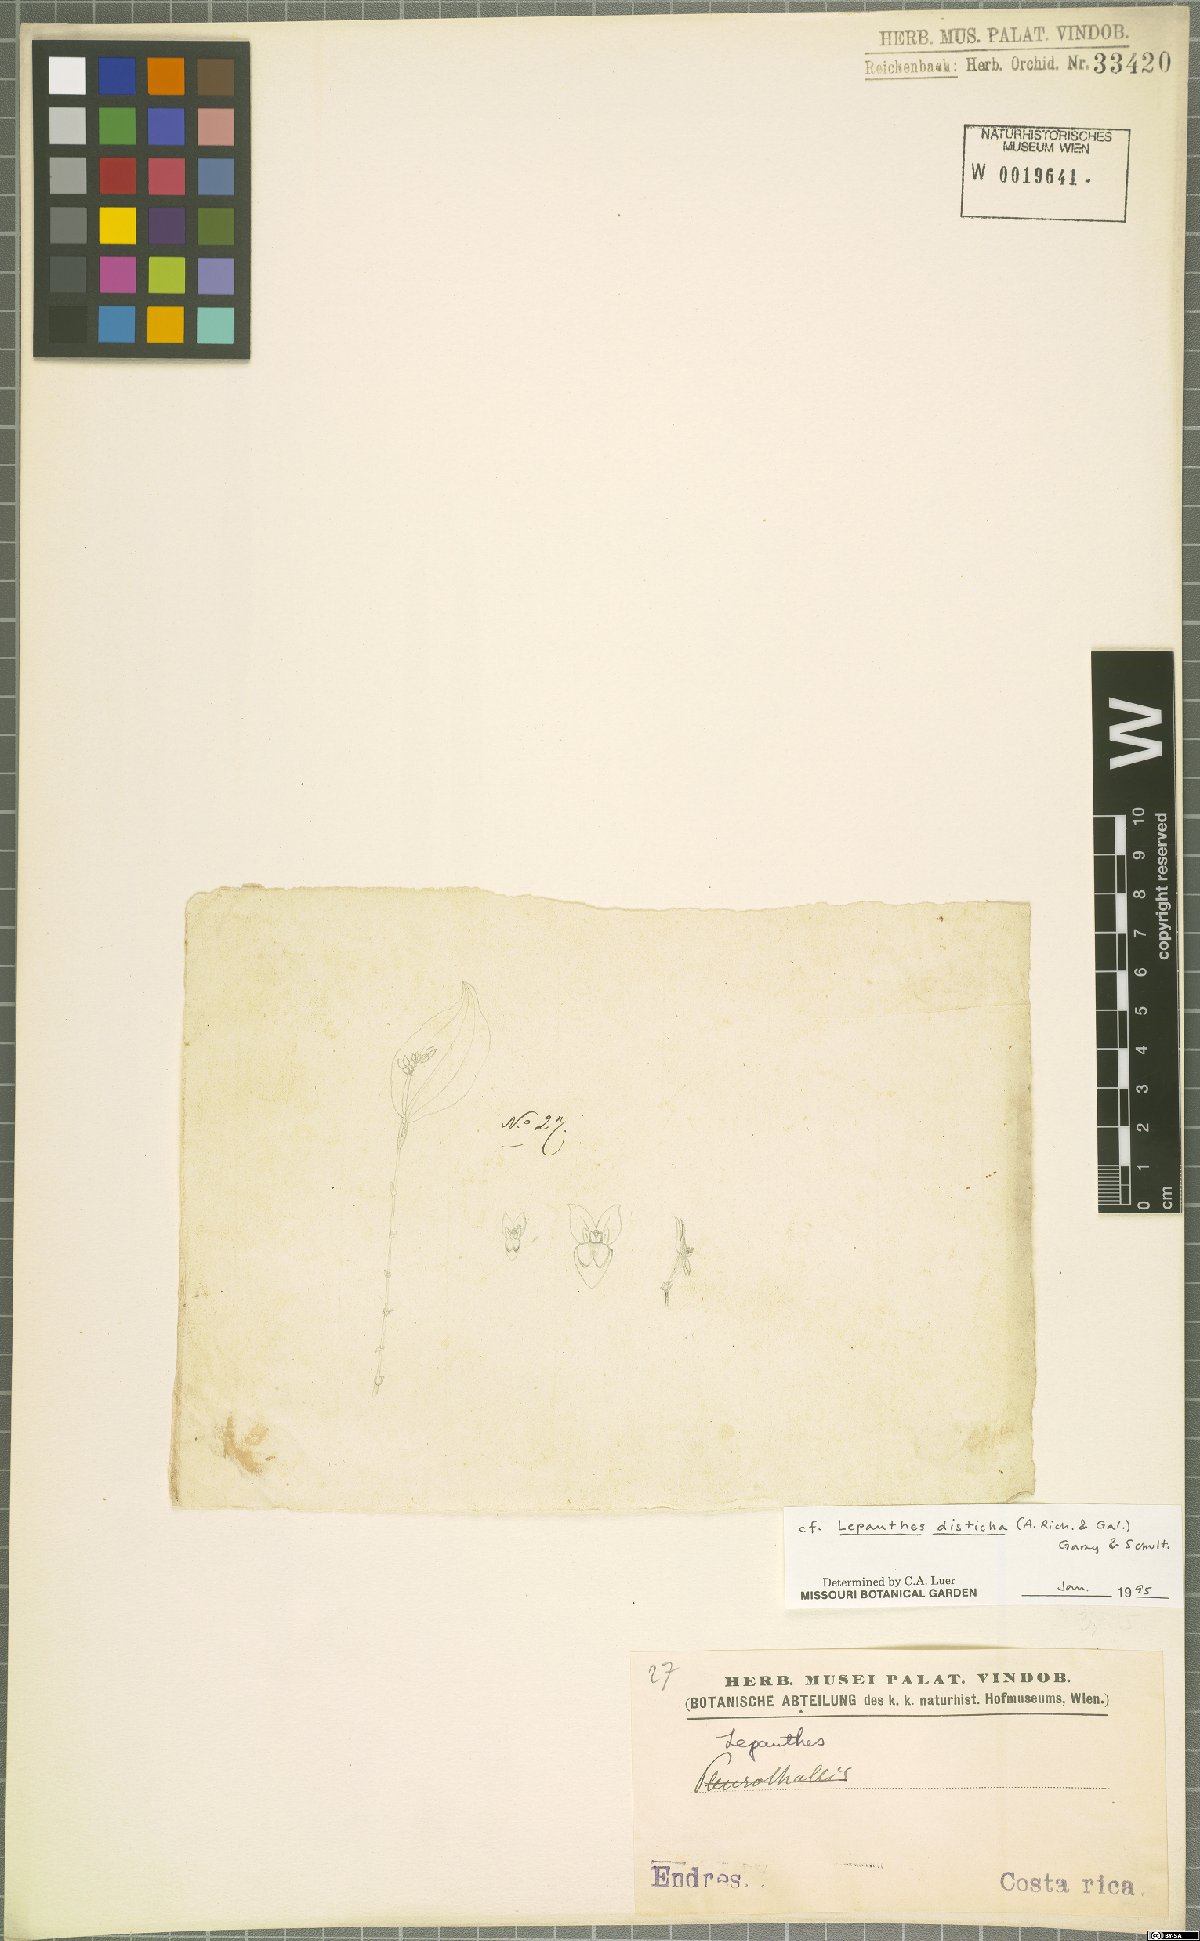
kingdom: Plantae
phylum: Tracheophyta
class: Liliopsida
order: Asparagales
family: Orchidaceae
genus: Lepanthes
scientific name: Lepanthes disticha
